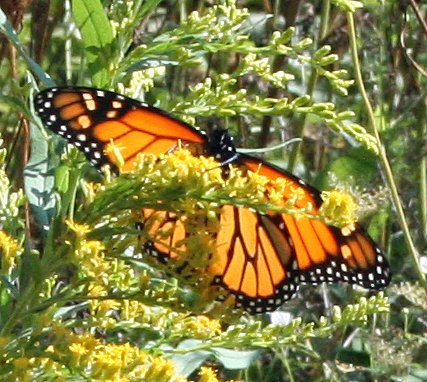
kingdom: Animalia
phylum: Arthropoda
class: Insecta
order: Lepidoptera
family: Nymphalidae
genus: Danaus
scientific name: Danaus plexippus
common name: Monarch
